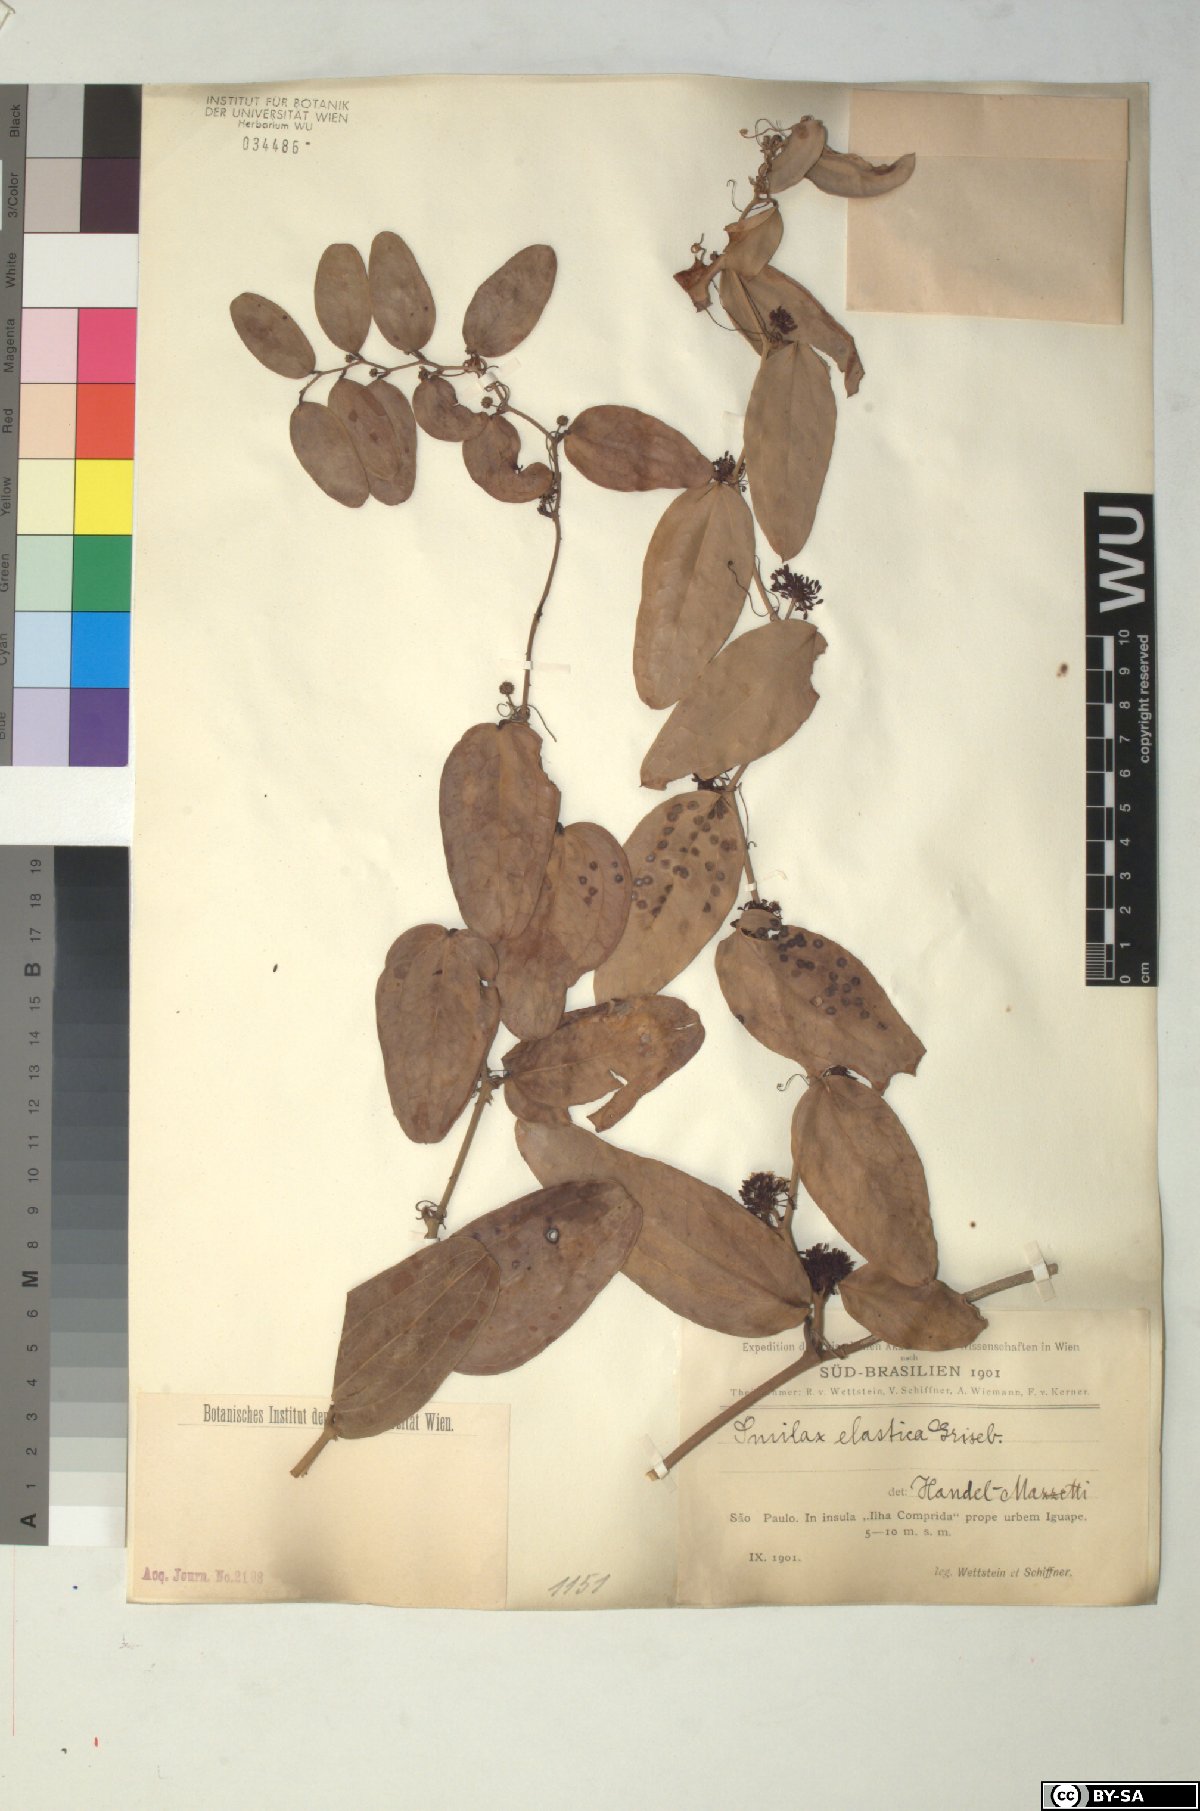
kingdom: Plantae
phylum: Tracheophyta
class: Liliopsida
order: Liliales
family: Smilacaceae
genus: Smilax
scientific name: Smilax elastica
